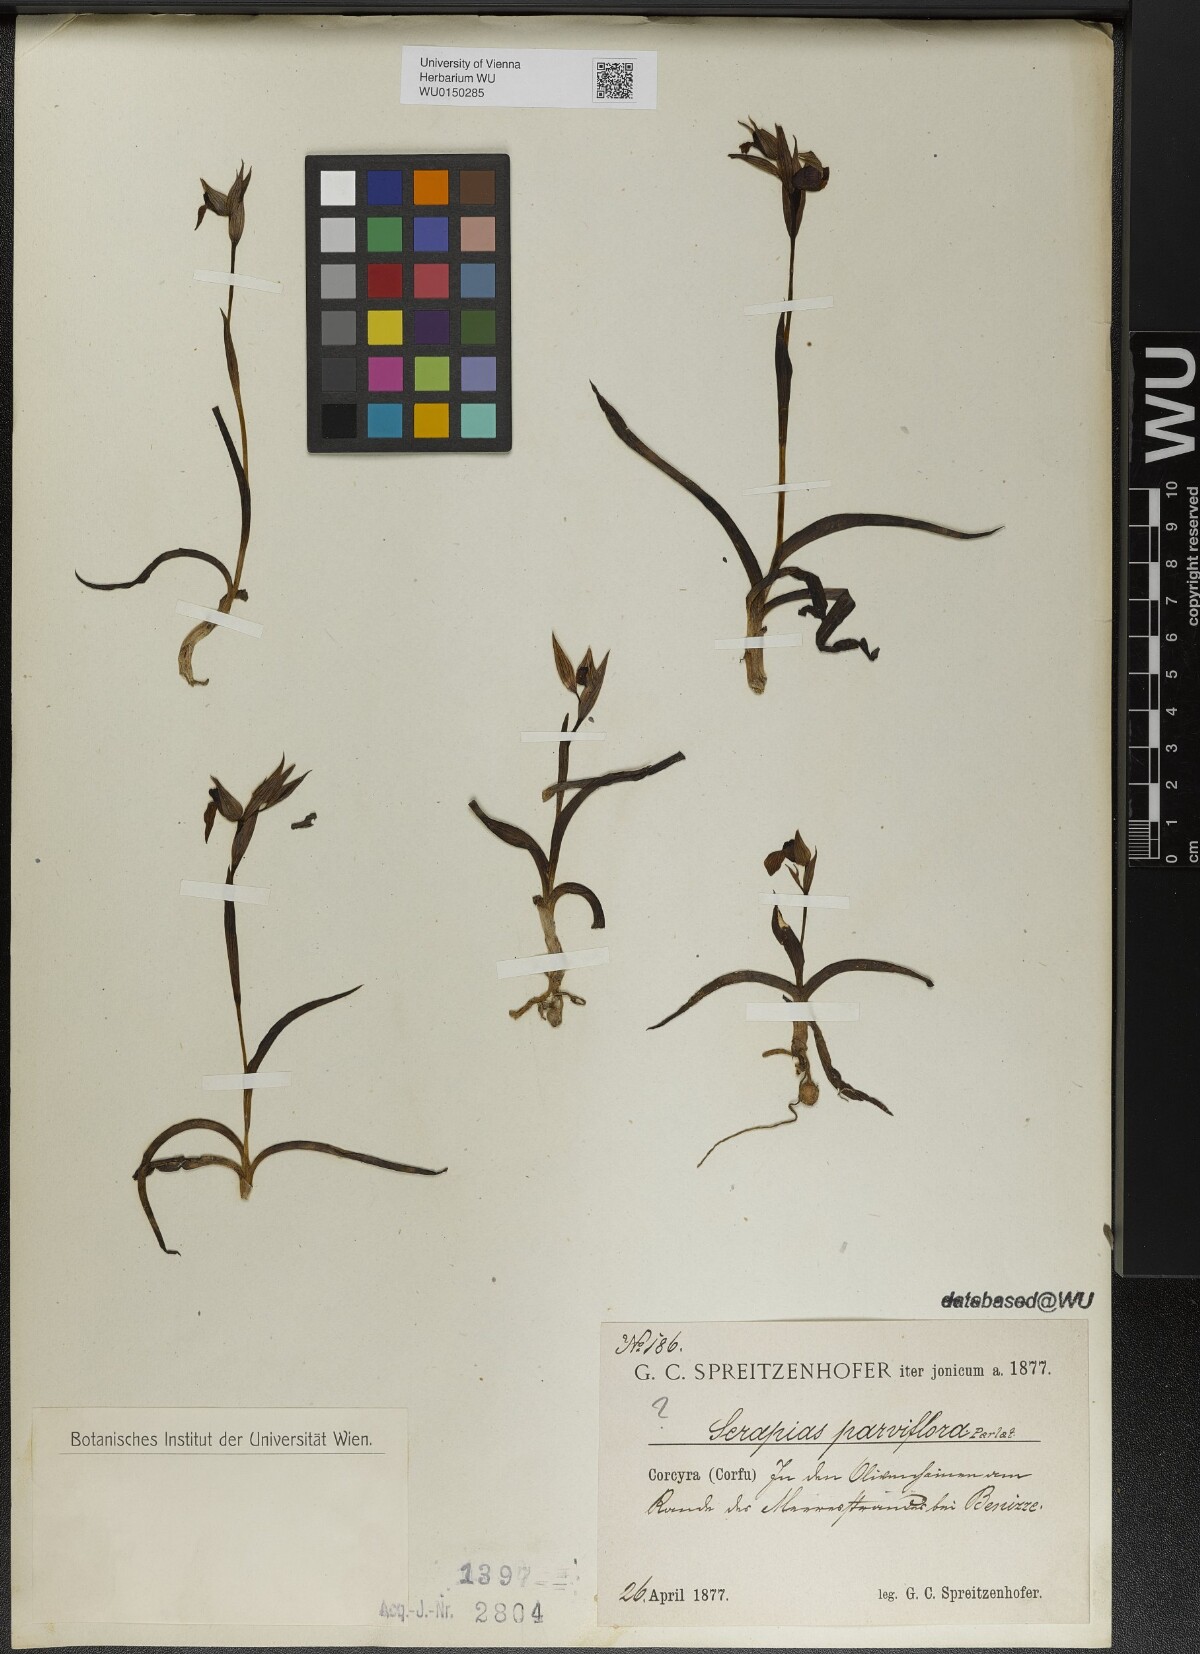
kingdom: Plantae
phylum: Tracheophyta
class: Liliopsida
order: Asparagales
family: Orchidaceae
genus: Serapias
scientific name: Serapias parviflora
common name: Small-flowered tongue-orchid
